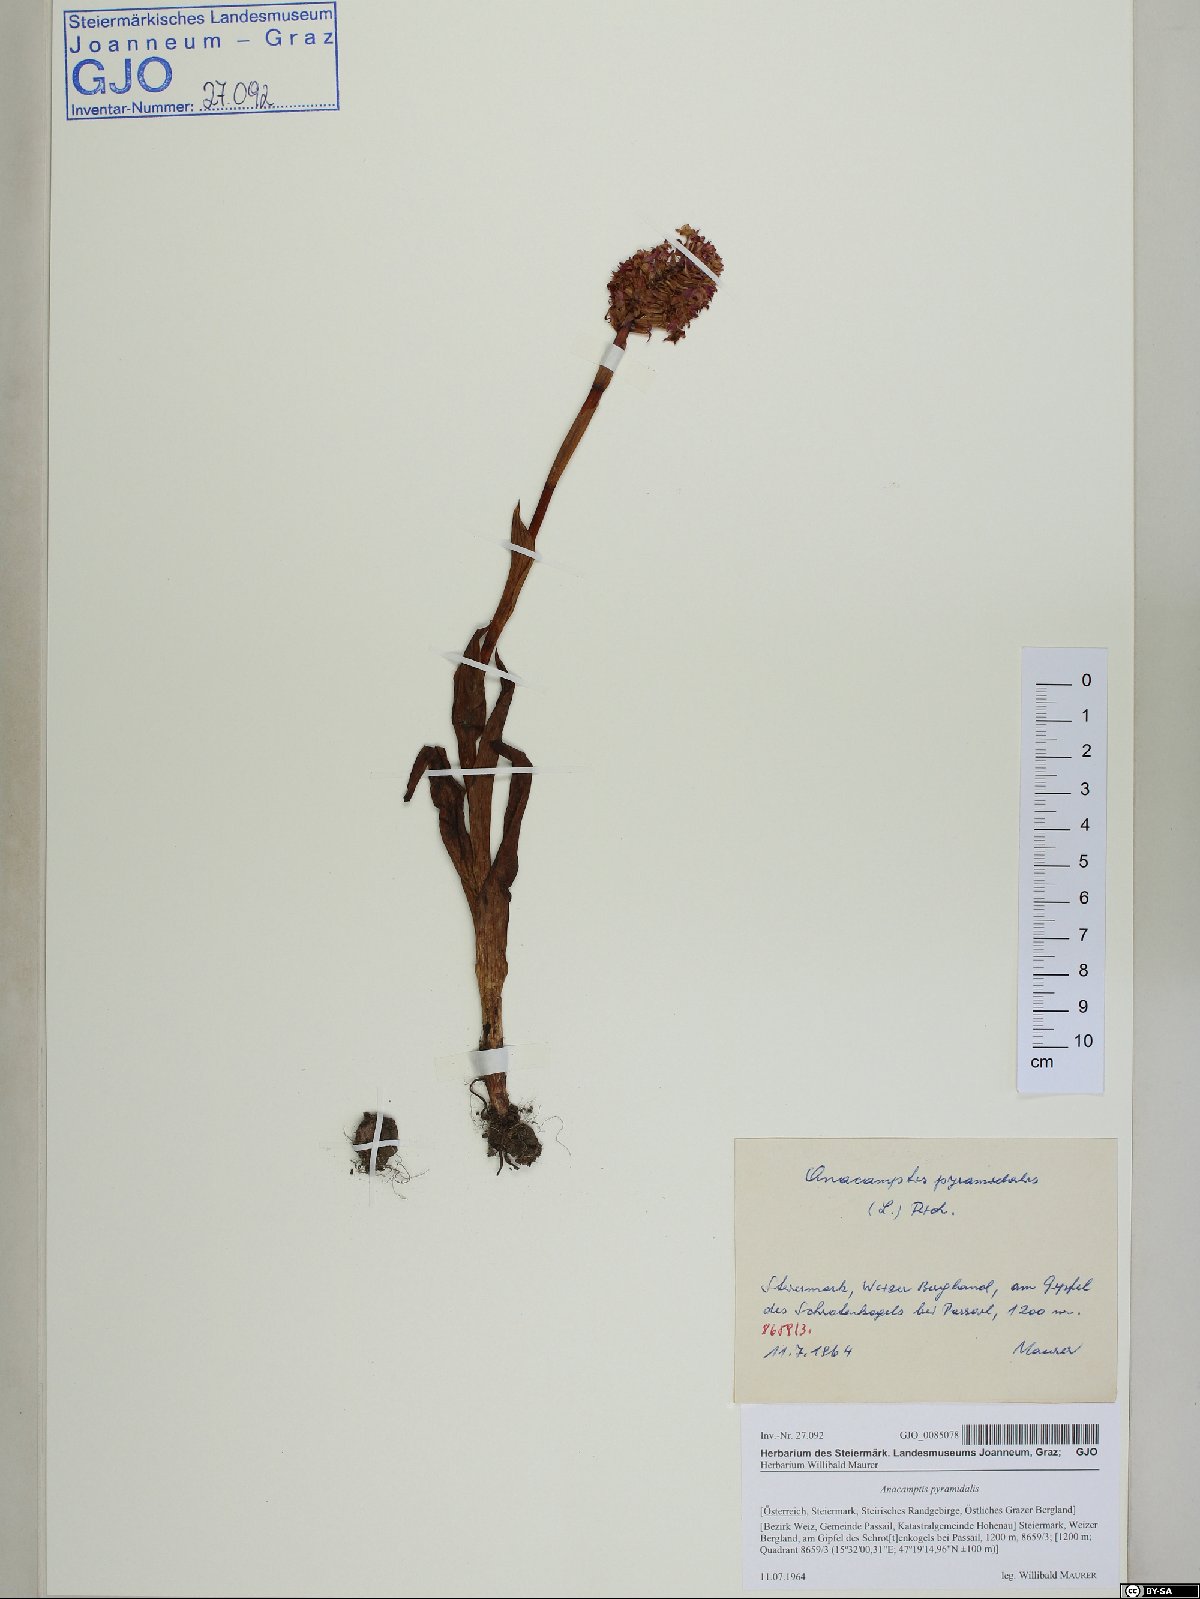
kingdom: Plantae
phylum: Tracheophyta
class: Liliopsida
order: Asparagales
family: Orchidaceae
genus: Anacamptis
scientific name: Anacamptis pyramidalis
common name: Pyramidal orchid
